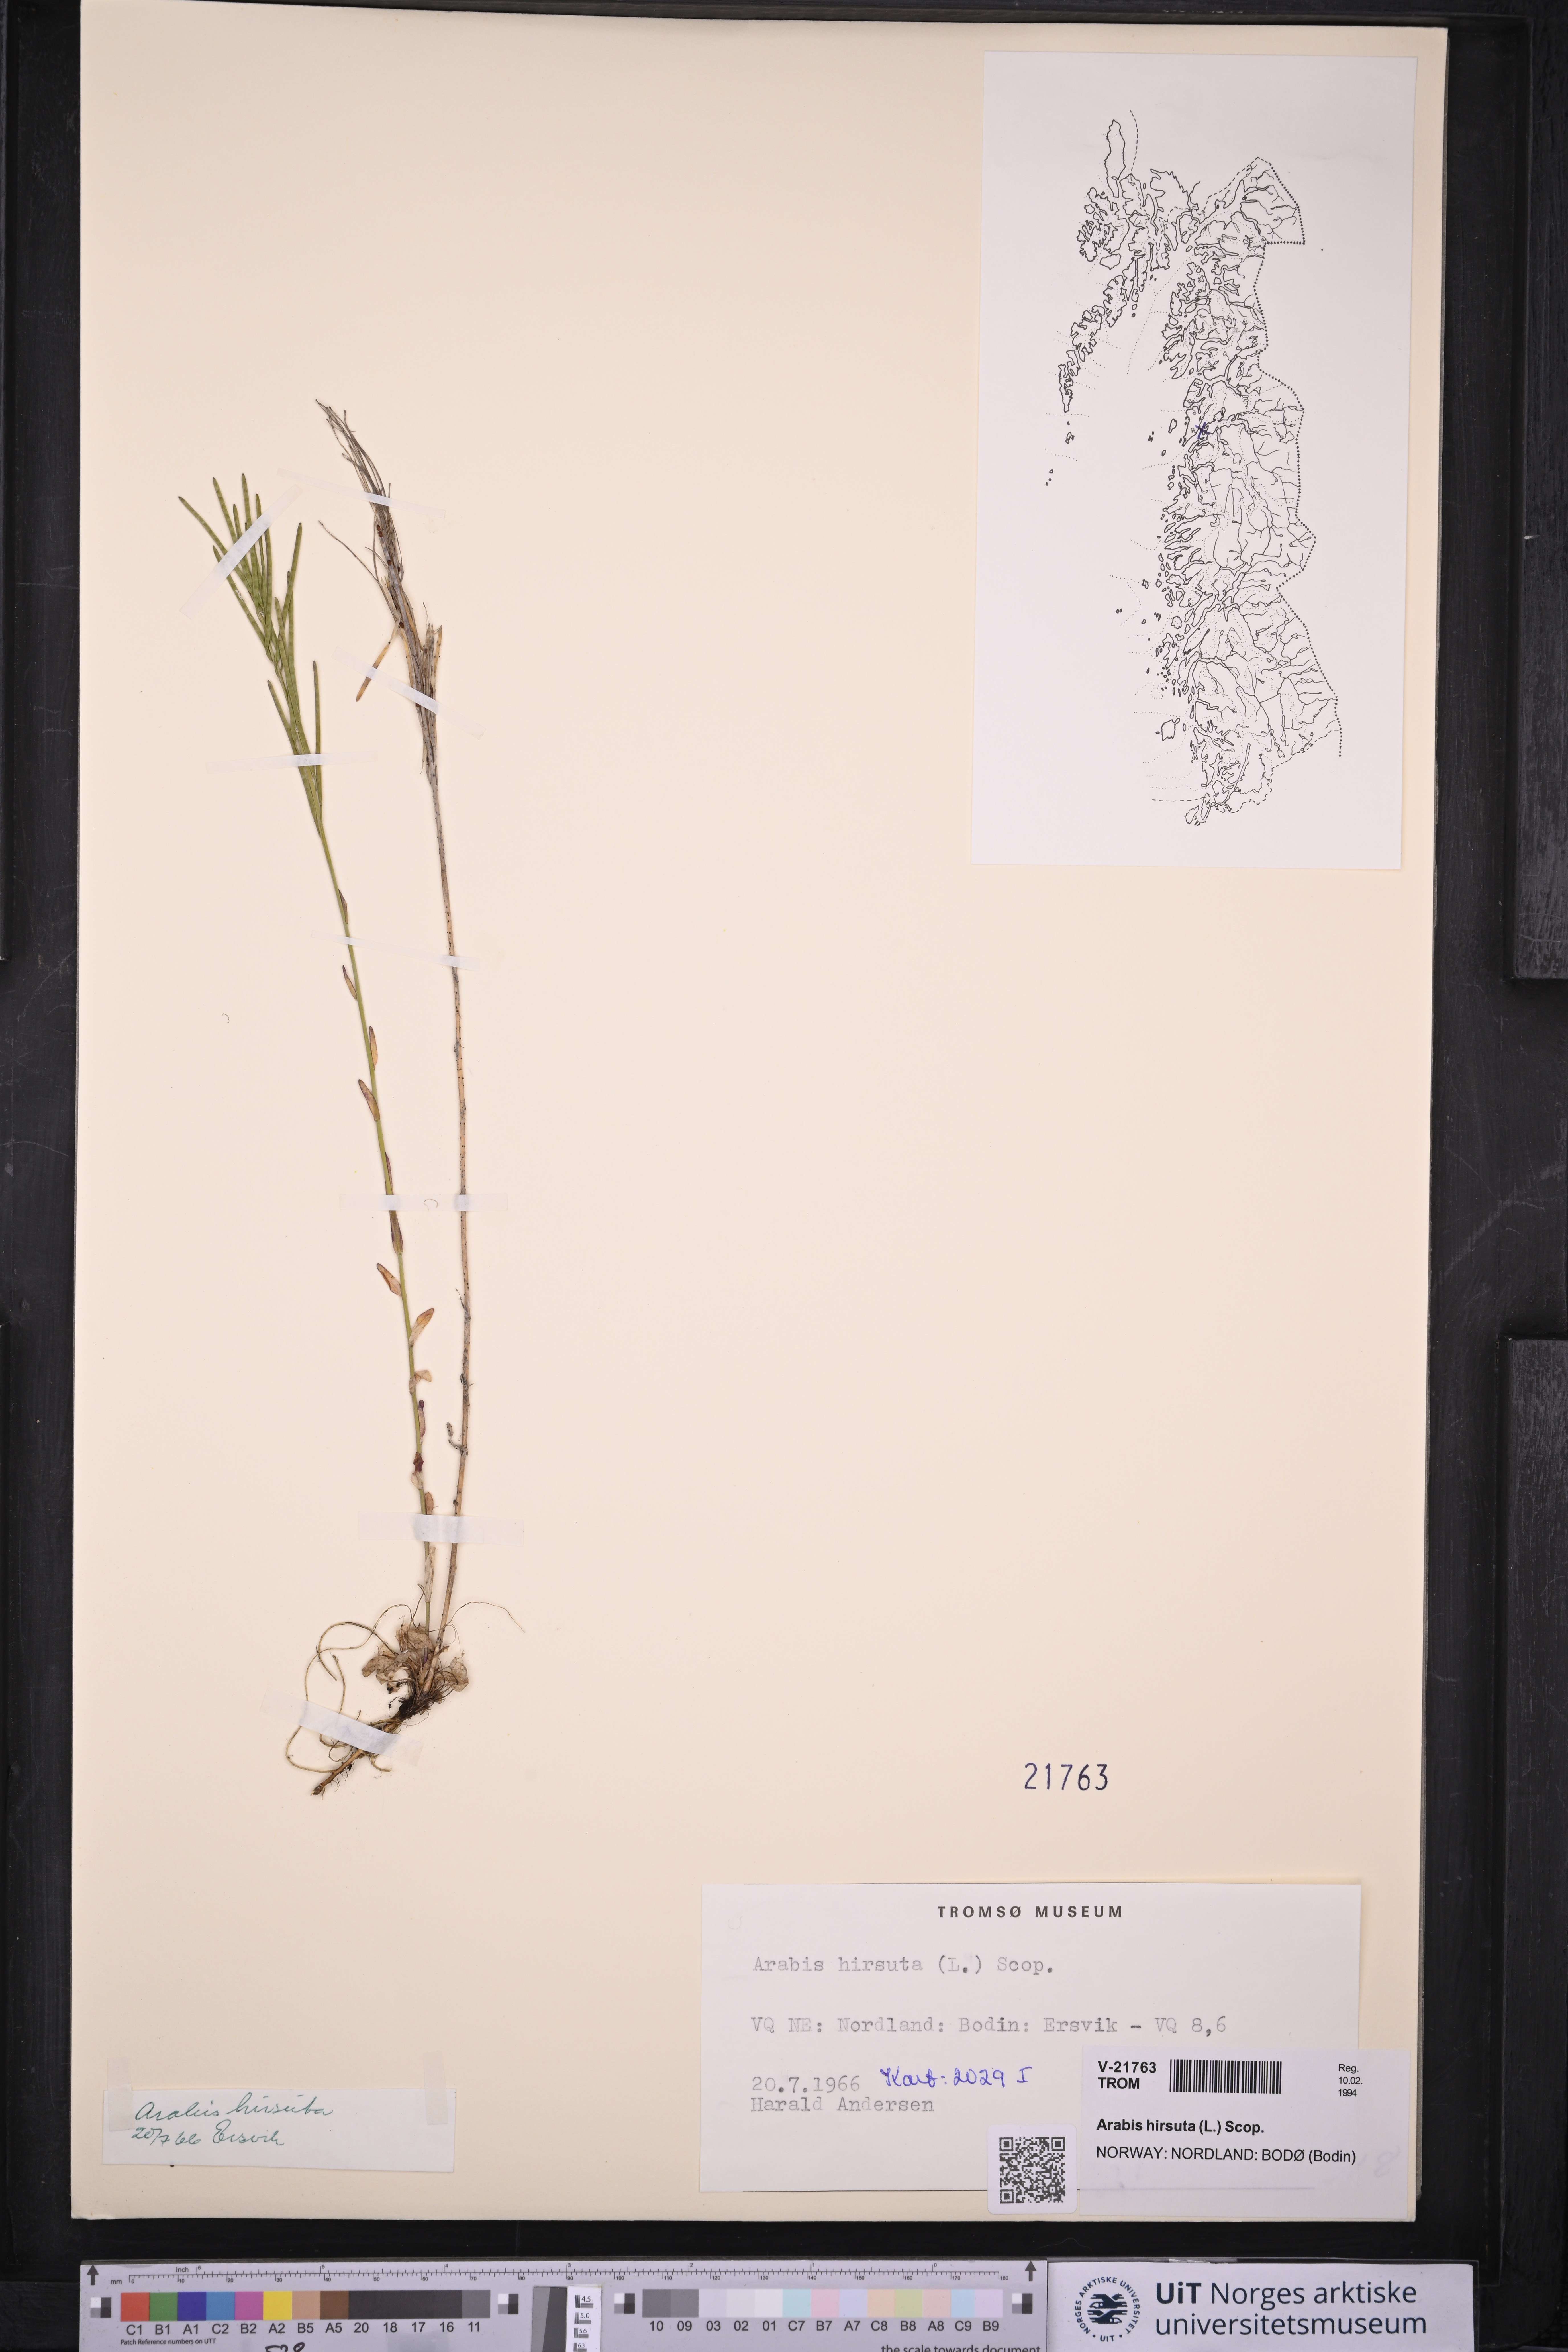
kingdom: Plantae
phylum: Tracheophyta
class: Magnoliopsida
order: Brassicales
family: Brassicaceae
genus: Arabis
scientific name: Arabis hirsuta
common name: Hairy rock-cress
